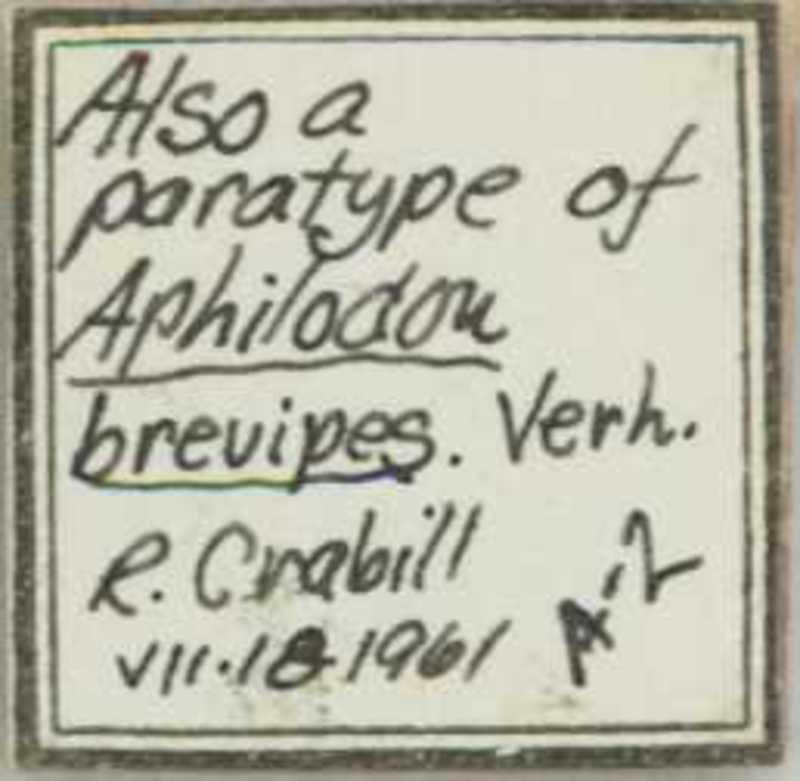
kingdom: Animalia
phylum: Arthropoda
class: Chilopoda
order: Geophilomorpha
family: Geophilidae
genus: Geoperingueyia
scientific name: Geoperingueyia
